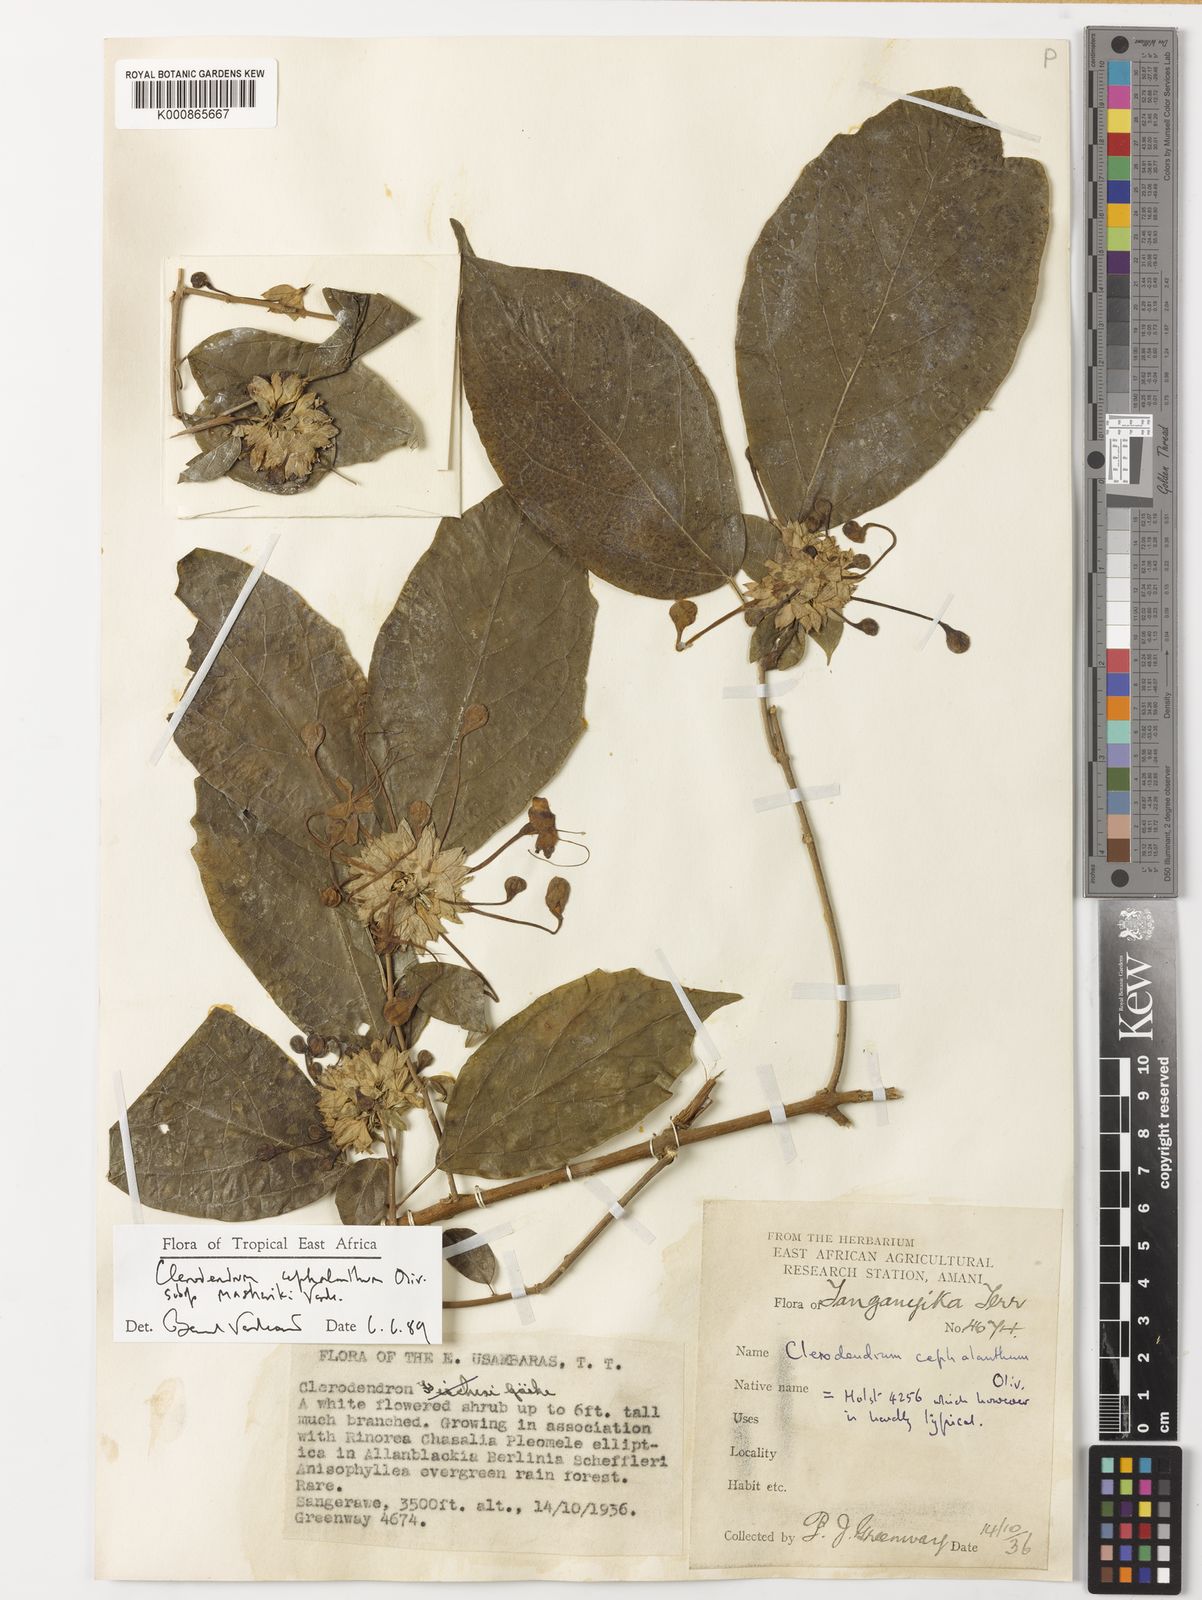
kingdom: Plantae
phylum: Tracheophyta
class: Magnoliopsida
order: Lamiales
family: Lamiaceae
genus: Clerodendrum
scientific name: Clerodendrum cephalanthum
